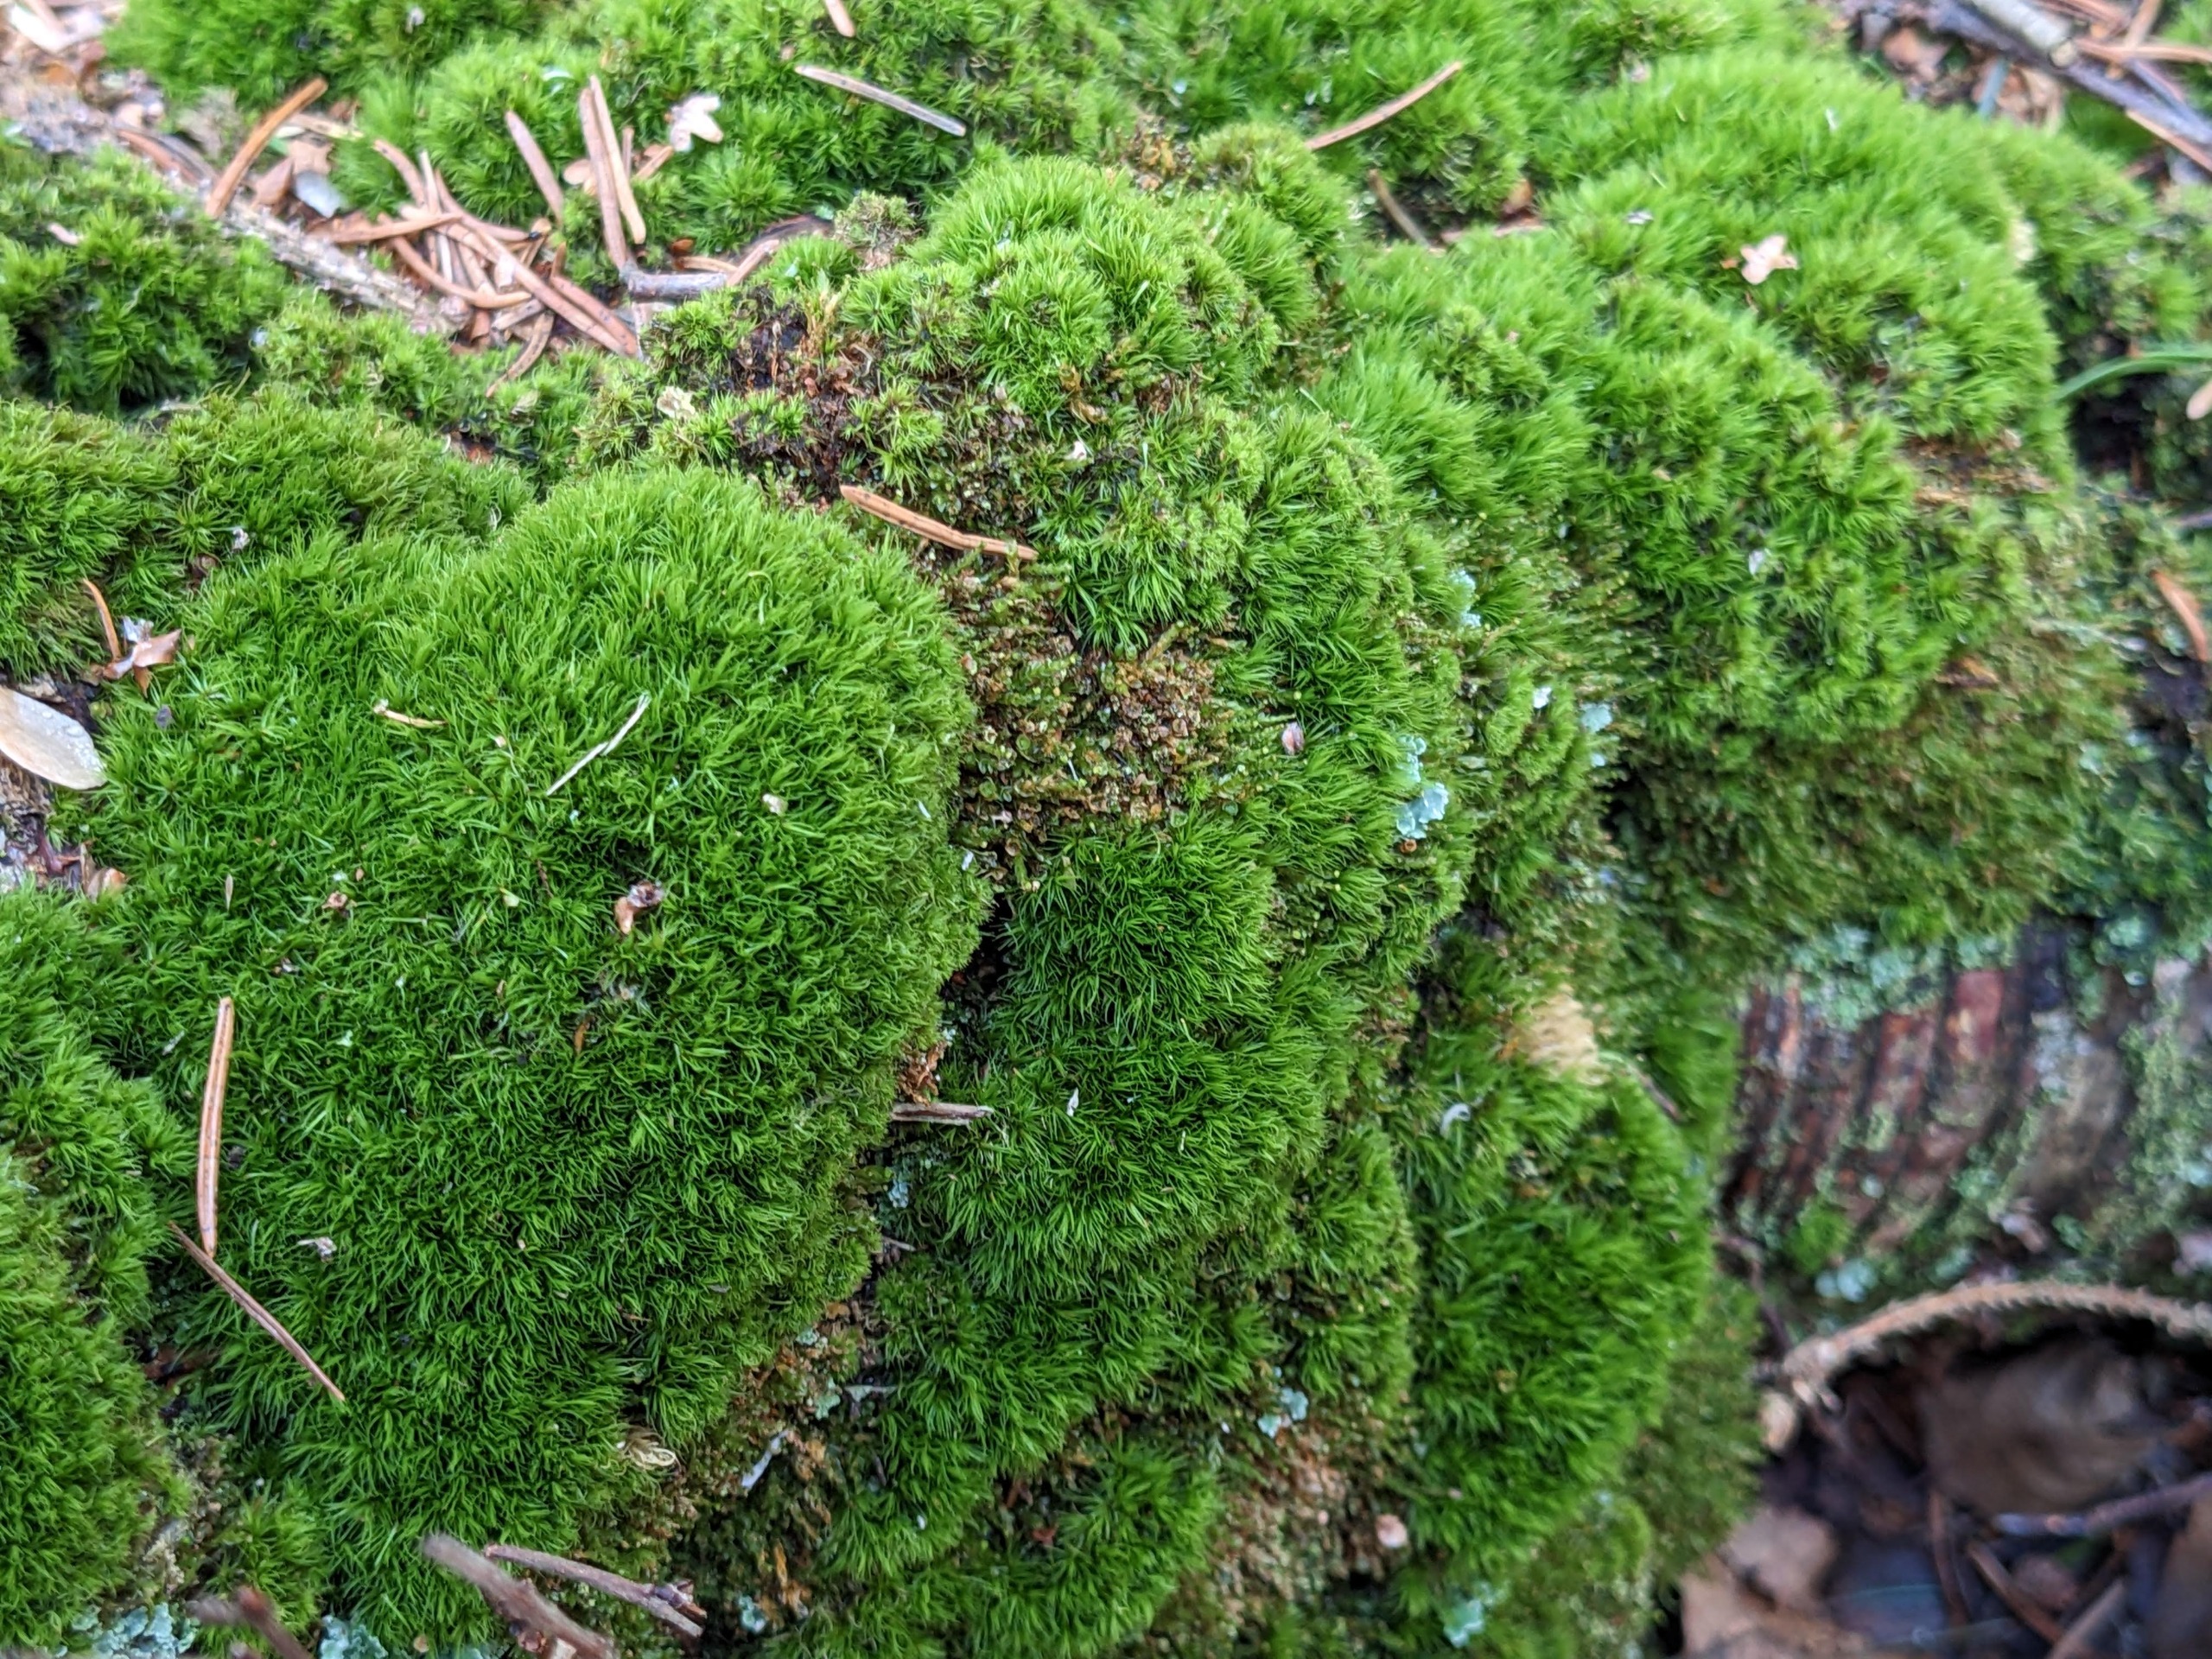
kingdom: Plantae
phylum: Bryophyta
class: Bryopsida
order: Dicranales
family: Dicranaceae
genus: Orthodicranum
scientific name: Orthodicranum montanum
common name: Tæt tyndvinge
